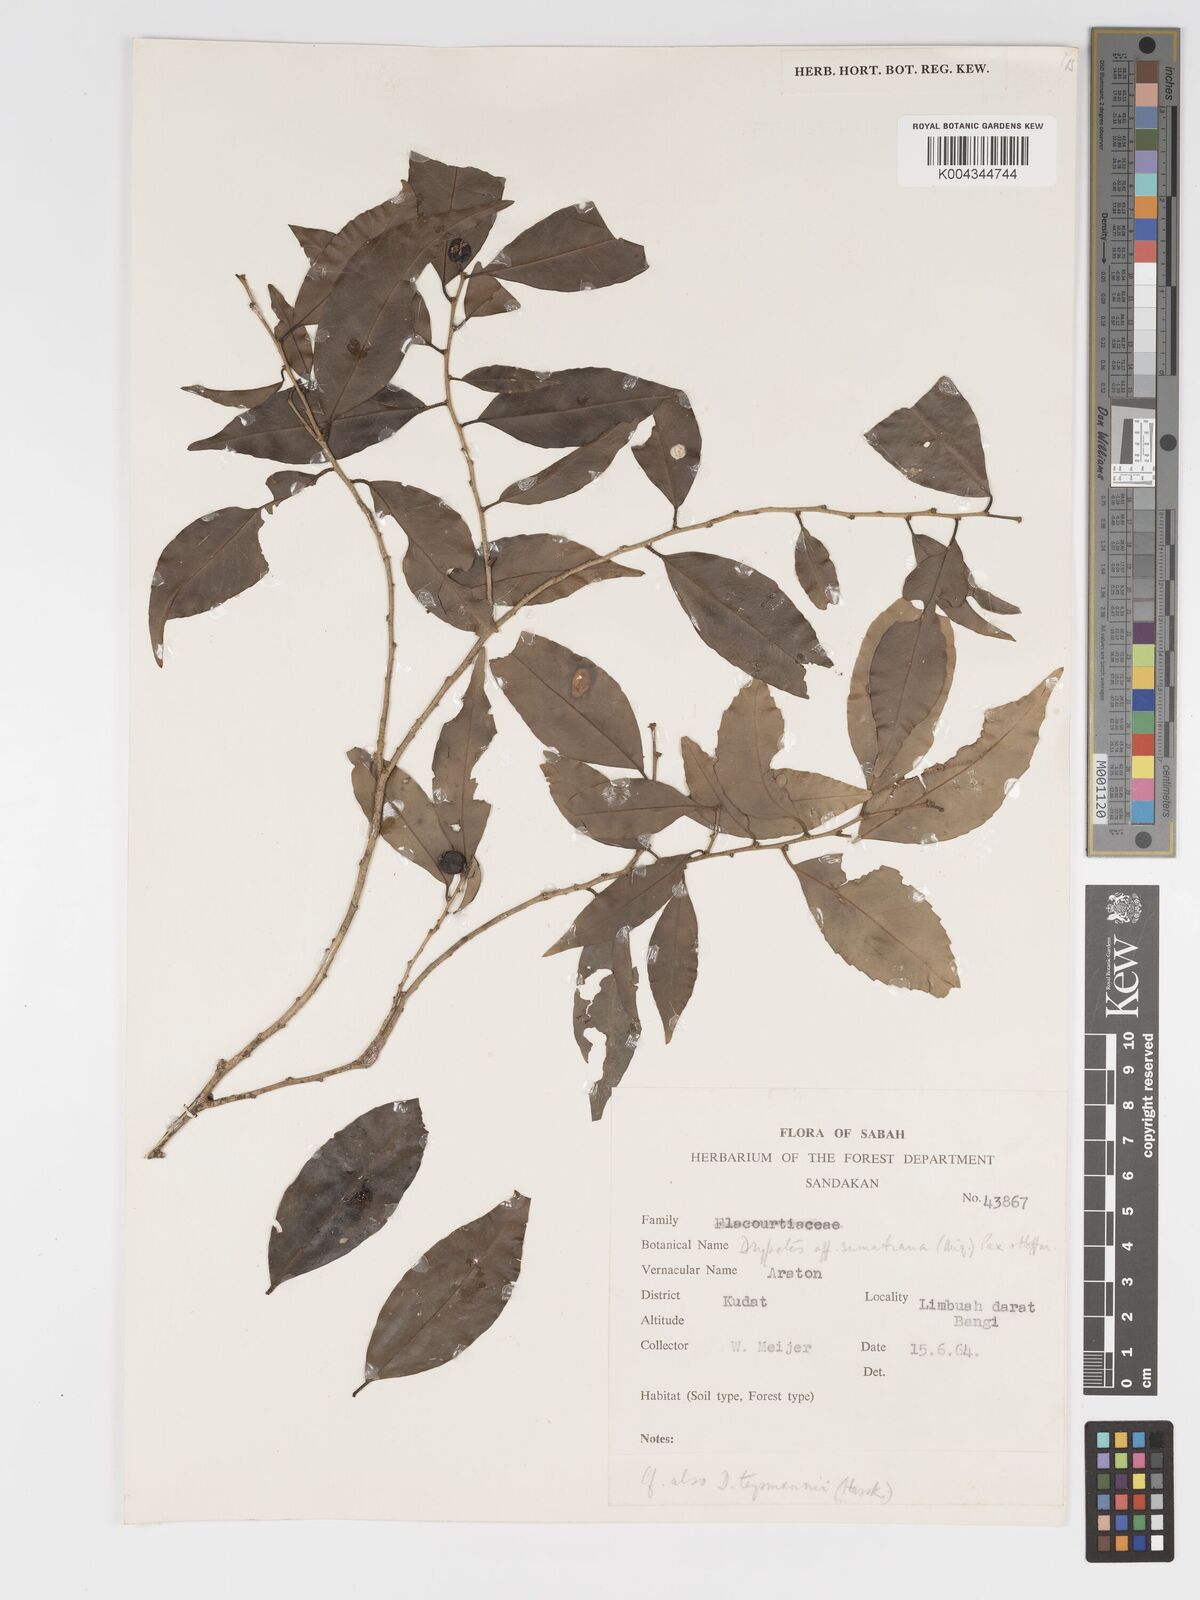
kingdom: Plantae
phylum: Tracheophyta
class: Magnoliopsida
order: Malpighiales
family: Putranjivaceae
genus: Drypetes
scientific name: Drypetes sumatrana
